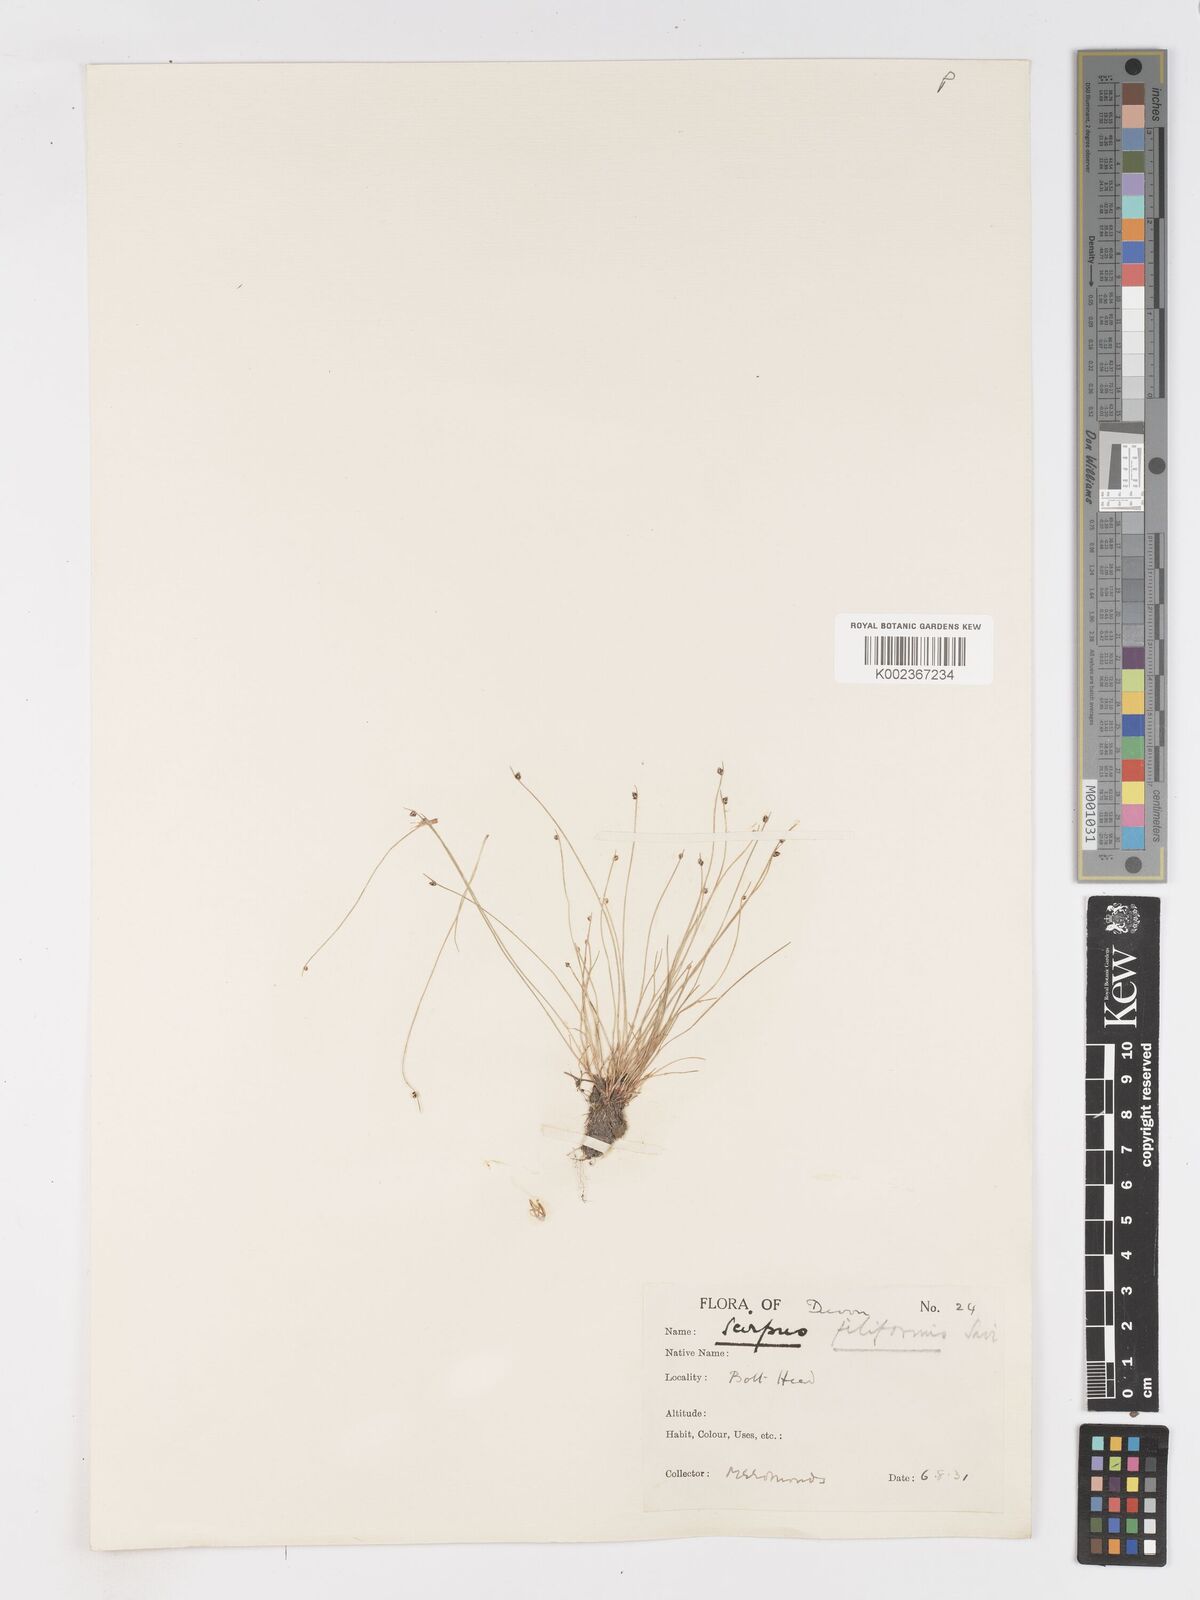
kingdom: Plantae
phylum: Tracheophyta
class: Liliopsida
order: Poales
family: Cyperaceae
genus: Isolepis
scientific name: Isolepis cernua
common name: Slender club-rush
